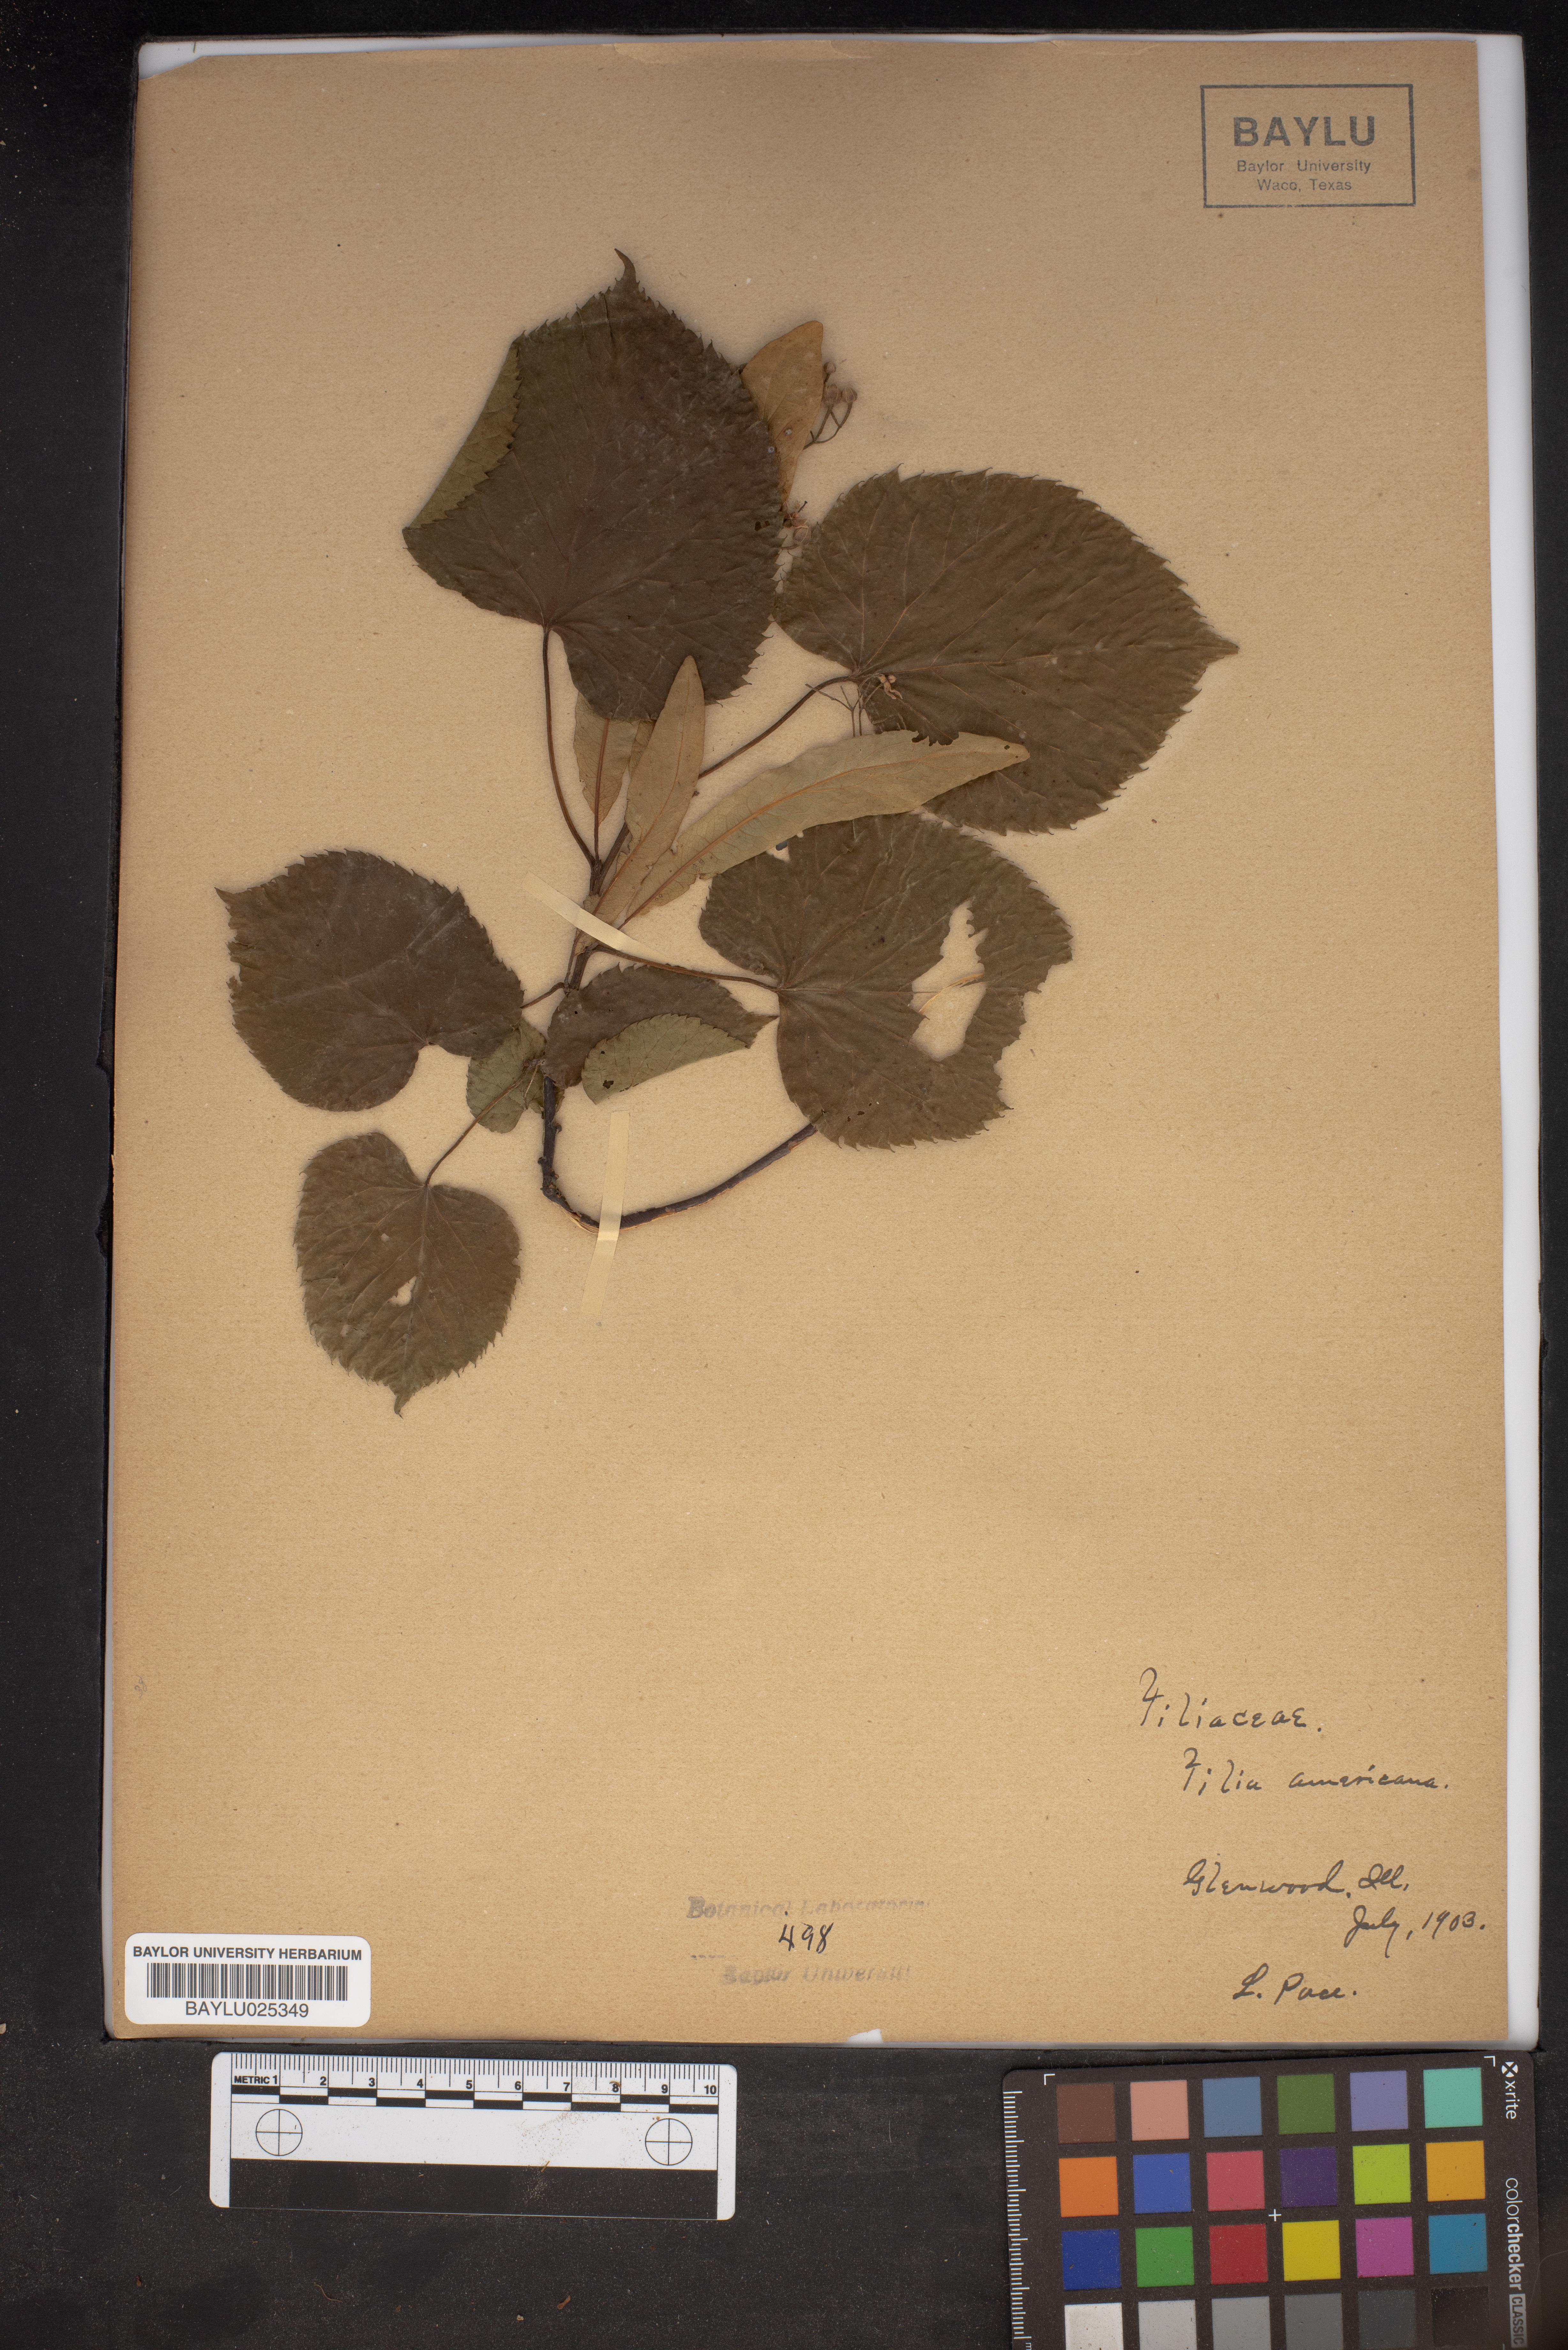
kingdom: Plantae
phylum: Tracheophyta
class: Magnoliopsida
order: Malvales
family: Malvaceae
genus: Tilia
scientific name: Tilia americana
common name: Basswood
